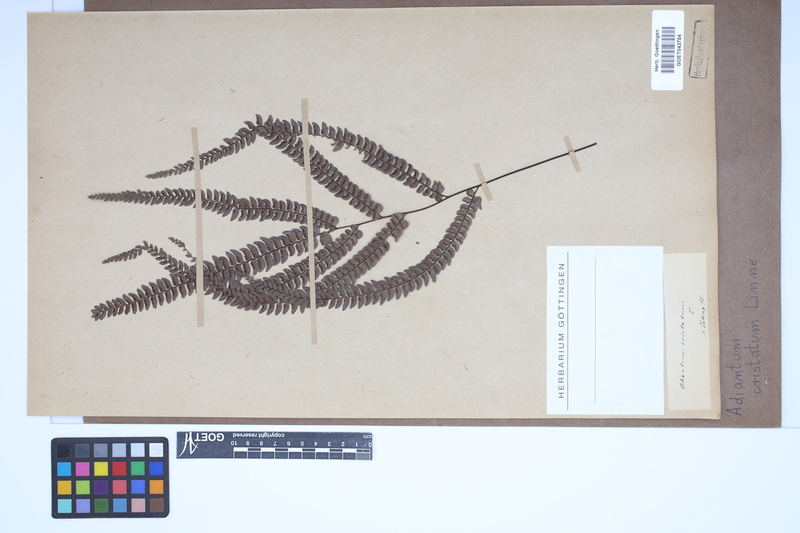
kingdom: Plantae
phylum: Tracheophyta
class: Polypodiopsida
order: Polypodiales
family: Pteridaceae
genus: Adiantum
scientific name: Adiantum pyramidale
